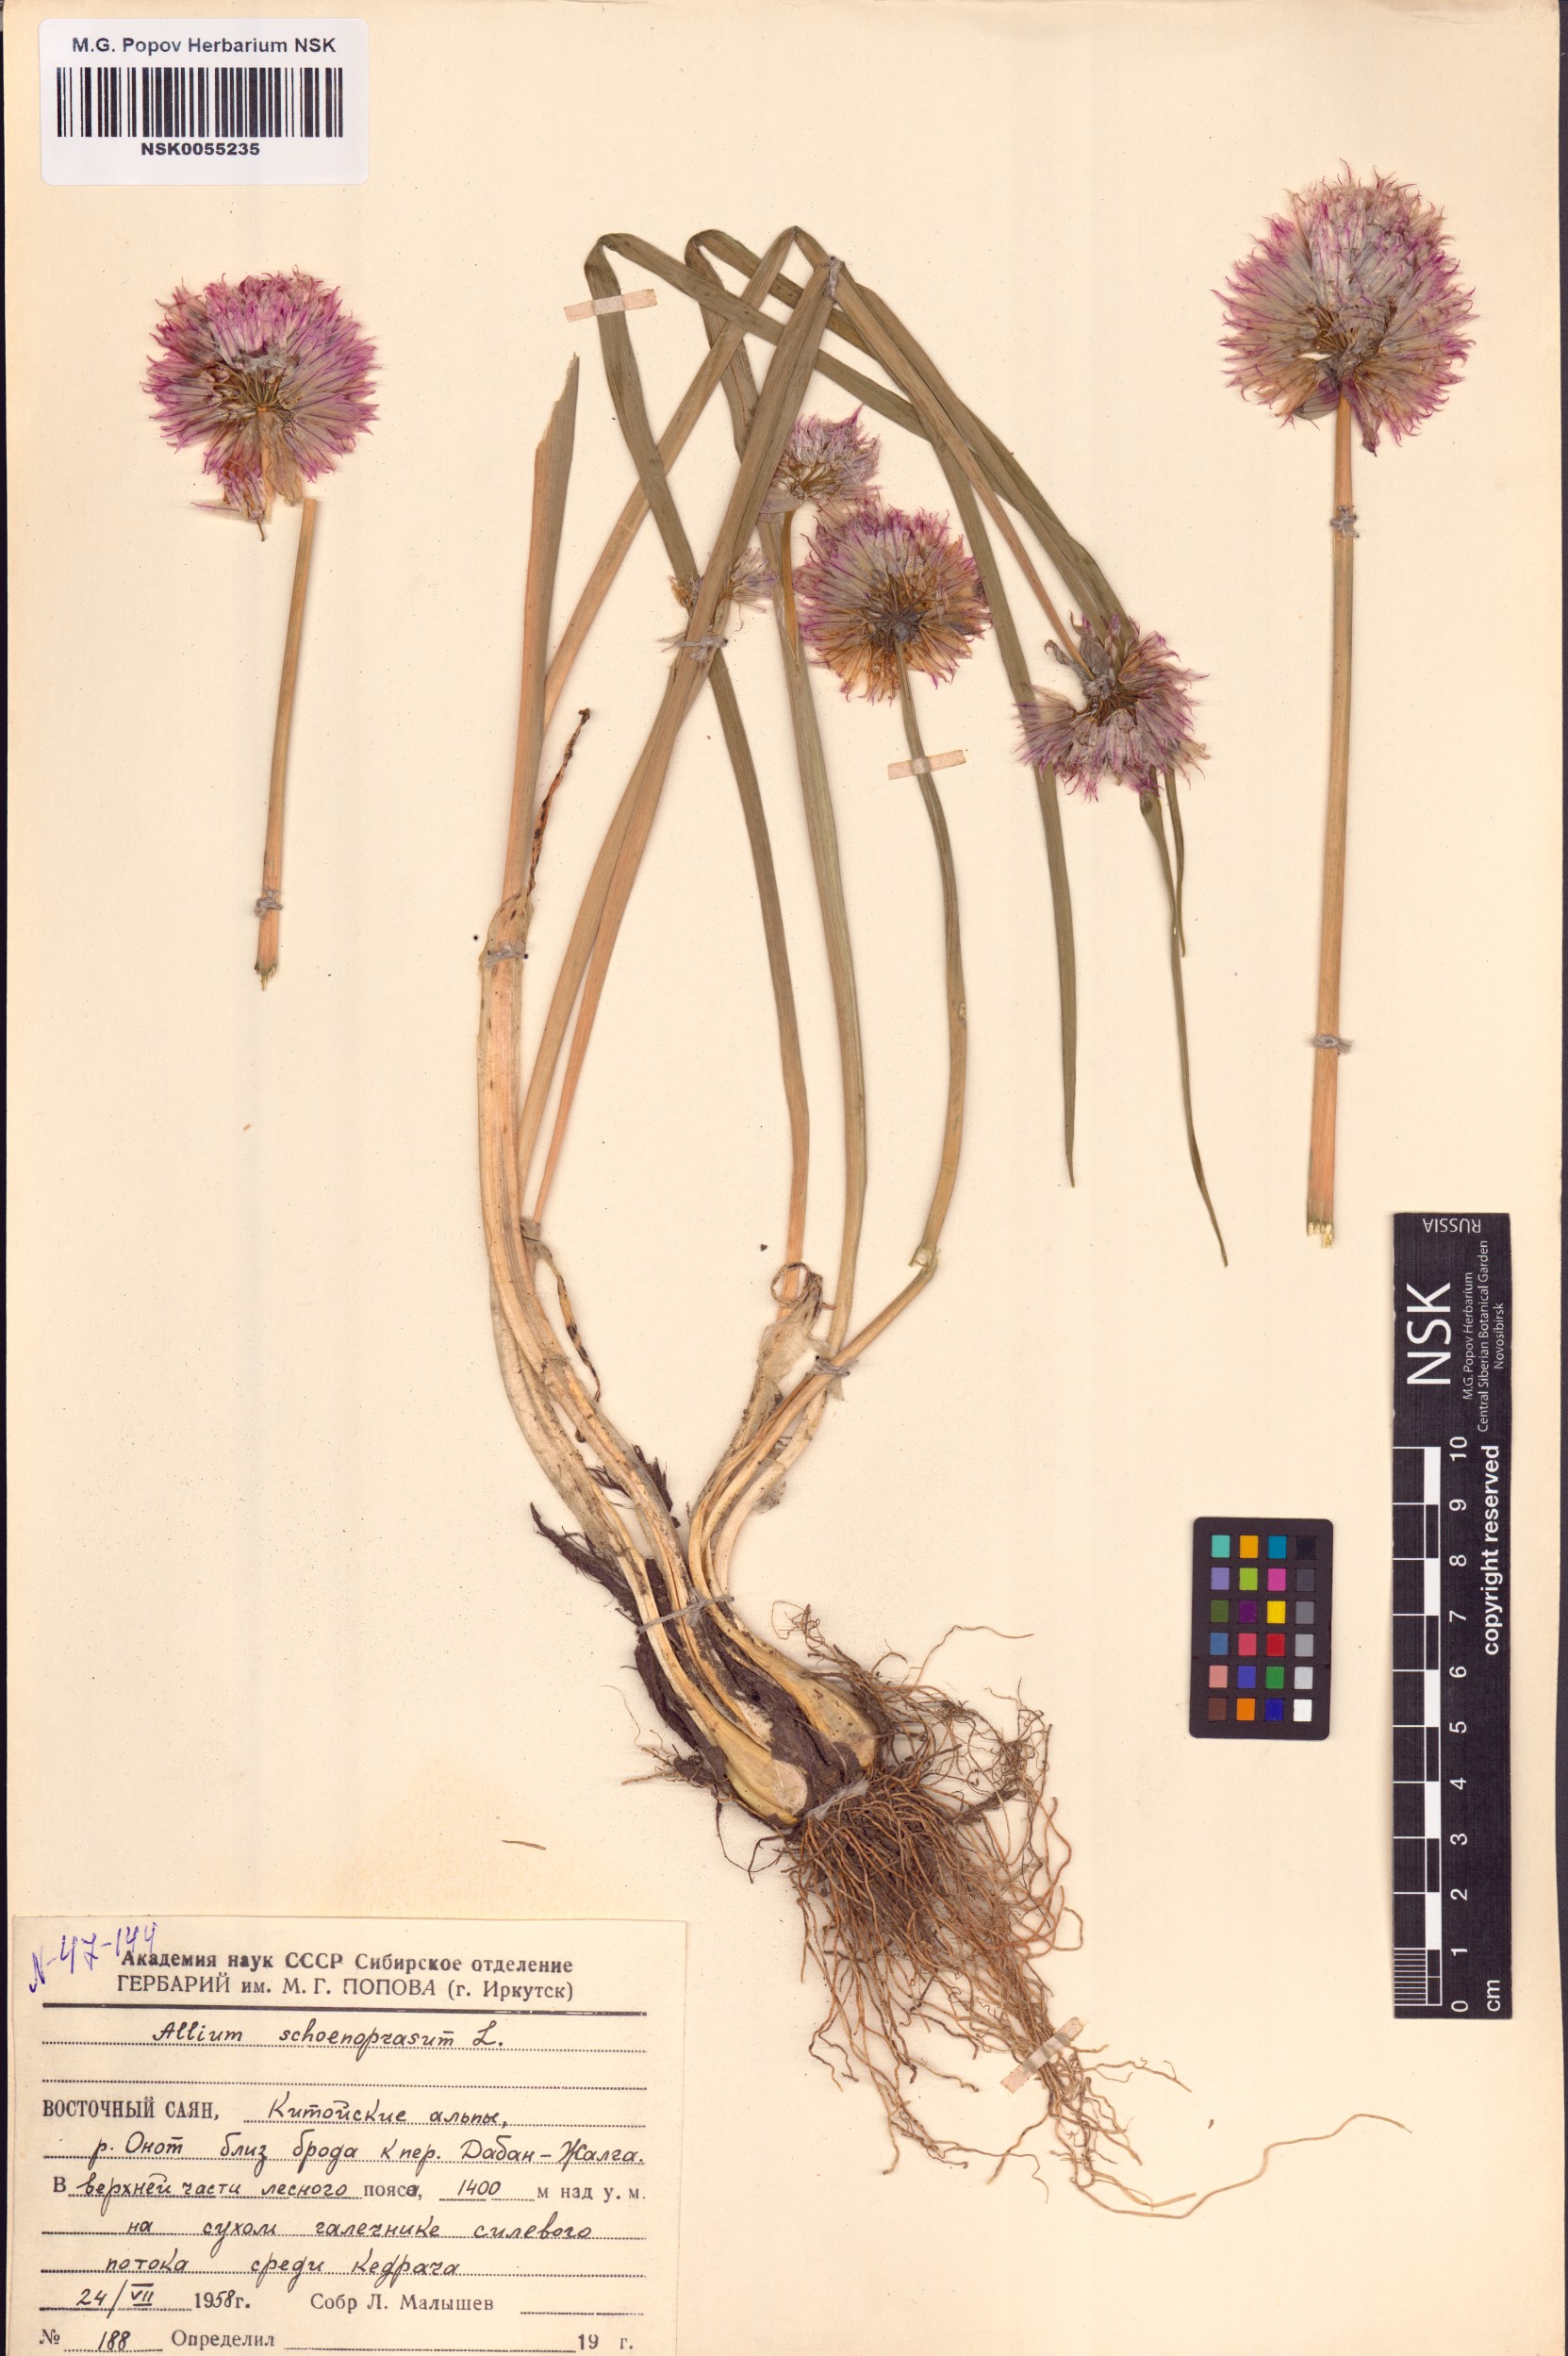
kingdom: Plantae
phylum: Tracheophyta
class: Liliopsida
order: Asparagales
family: Amaryllidaceae
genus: Allium
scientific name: Allium schoenoprasum
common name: Chives
